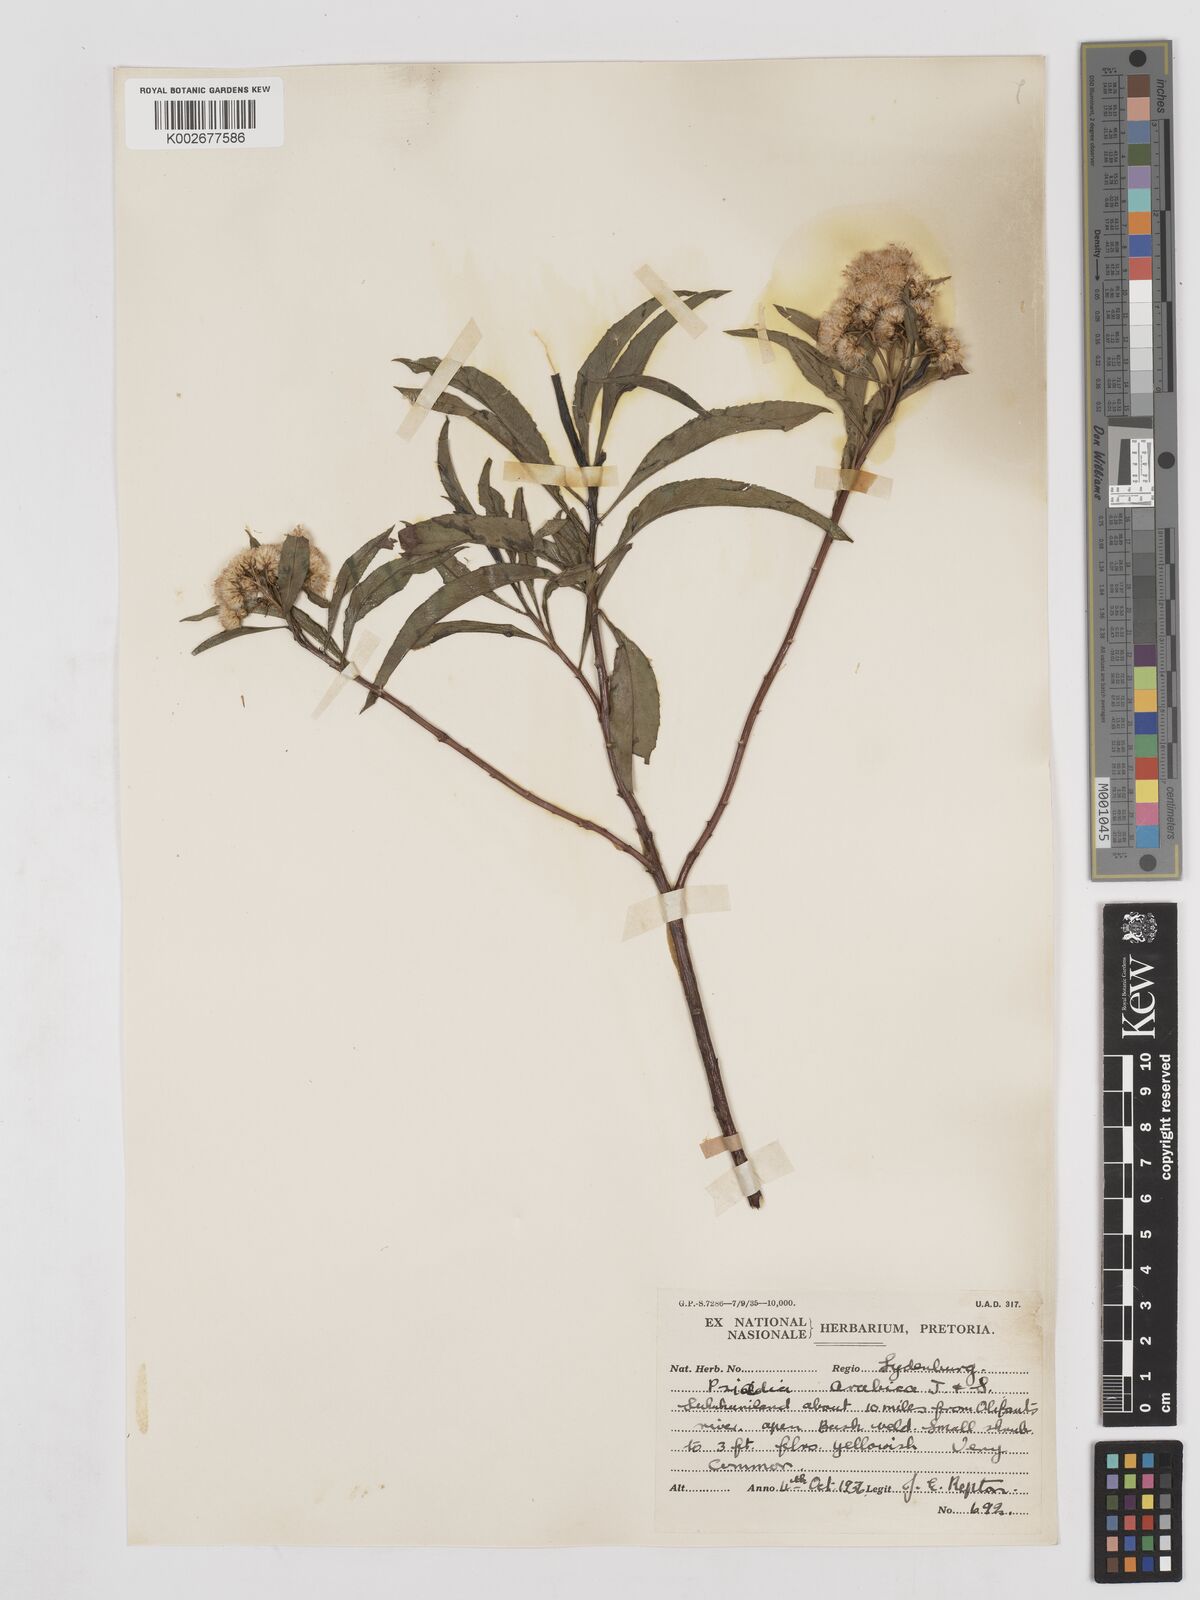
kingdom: Plantae
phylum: Tracheophyta
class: Magnoliopsida
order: Asterales
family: Asteraceae
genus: Psiadia
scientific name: Psiadia punctulata
